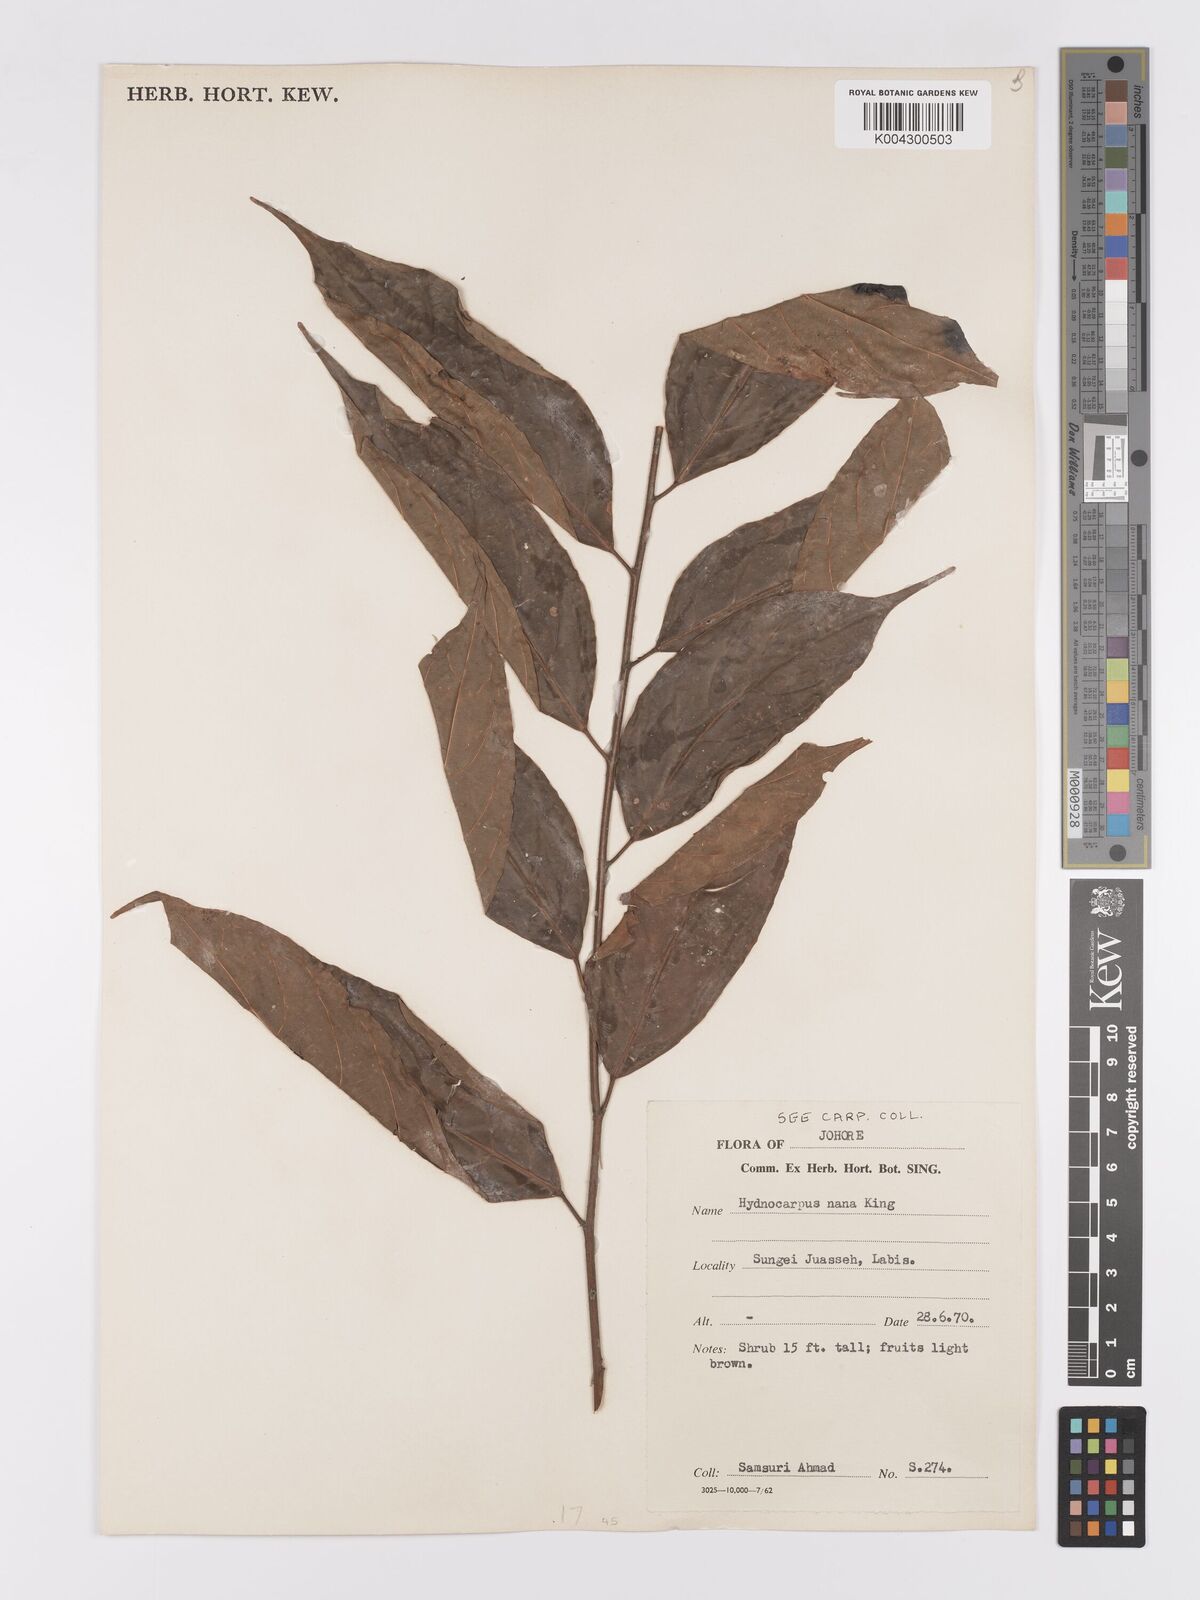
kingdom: Plantae
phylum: Tracheophyta
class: Magnoliopsida
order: Malpighiales
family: Achariaceae
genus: Hydnocarpus
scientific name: Hydnocarpus nanus
